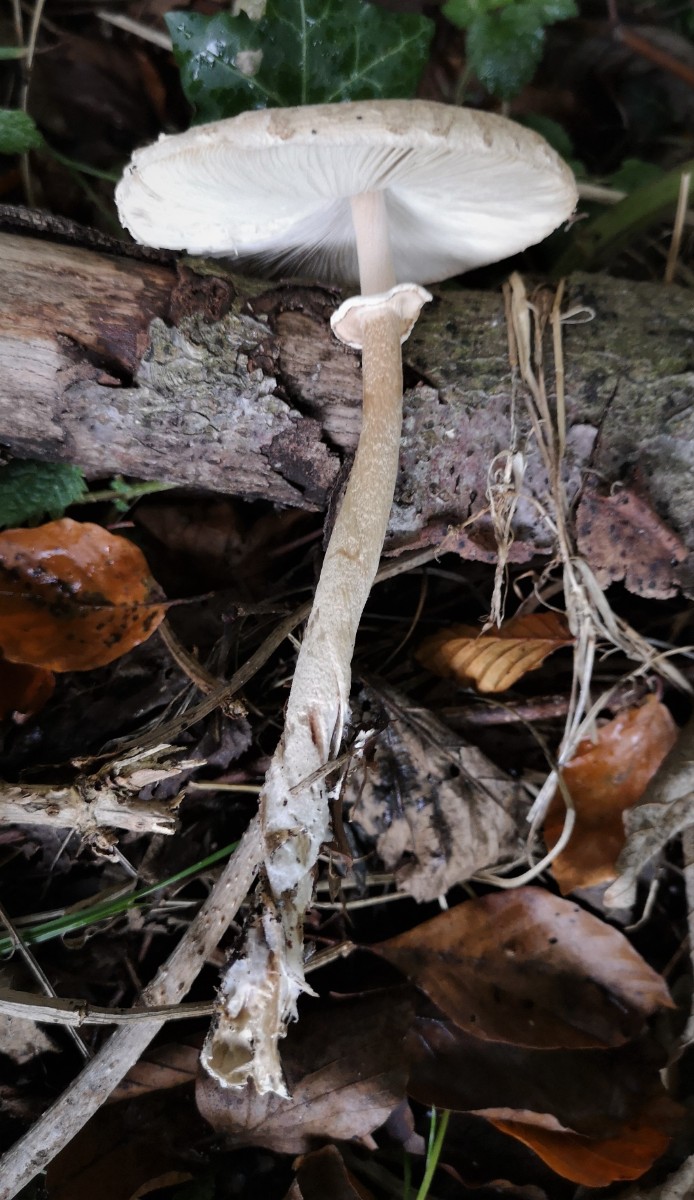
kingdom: Fungi
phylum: Basidiomycota
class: Agaricomycetes
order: Agaricales
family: Agaricaceae
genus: Macrolepiota
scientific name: Macrolepiota mastoidea
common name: puklet kæmpeparasolhat
